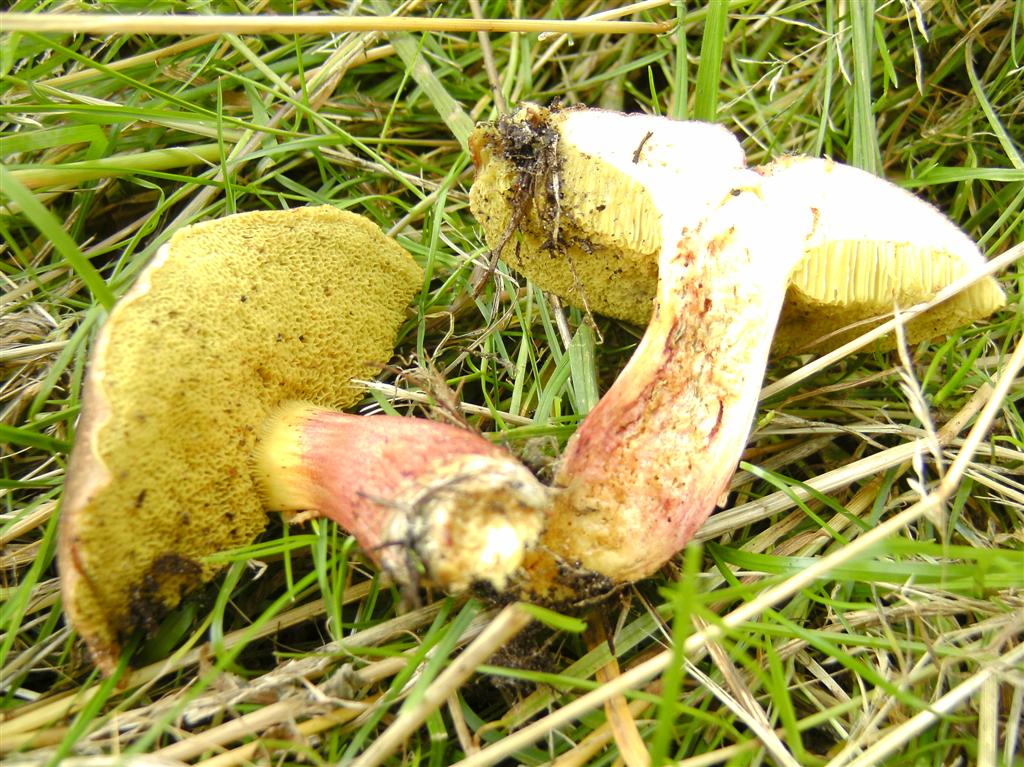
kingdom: Fungi
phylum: Basidiomycota
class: Agaricomycetes
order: Boletales
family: Boletaceae
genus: Xerocomellus
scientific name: Xerocomellus chrysenteron
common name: rødsprukken rørhat
